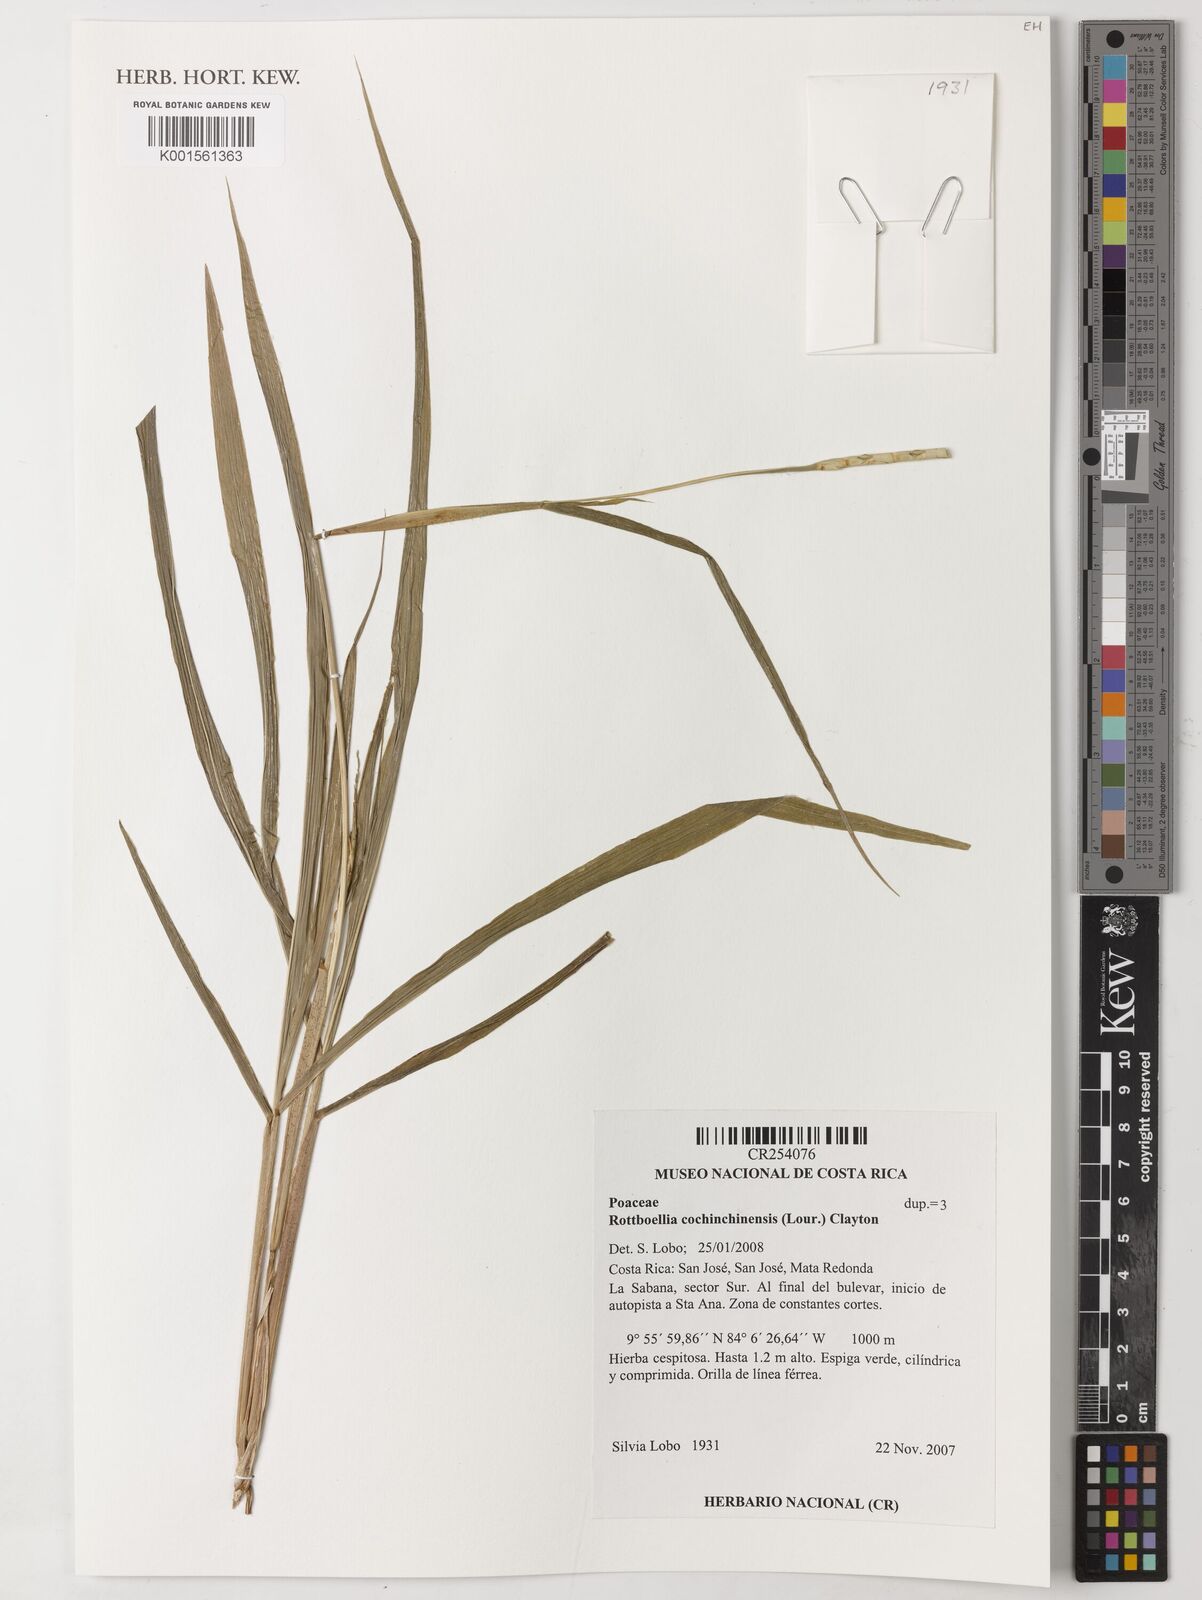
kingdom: Plantae
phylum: Tracheophyta
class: Liliopsida
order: Poales
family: Poaceae
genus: Rottboellia
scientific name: Rottboellia cochinchinensis
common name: Itchgrass
